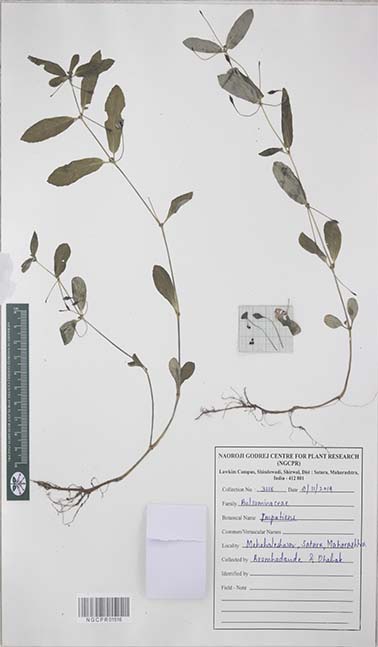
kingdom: Plantae
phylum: Tracheophyta
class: Magnoliopsida
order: Ericales
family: Balsaminaceae
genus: Impatiens
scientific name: Impatiens
